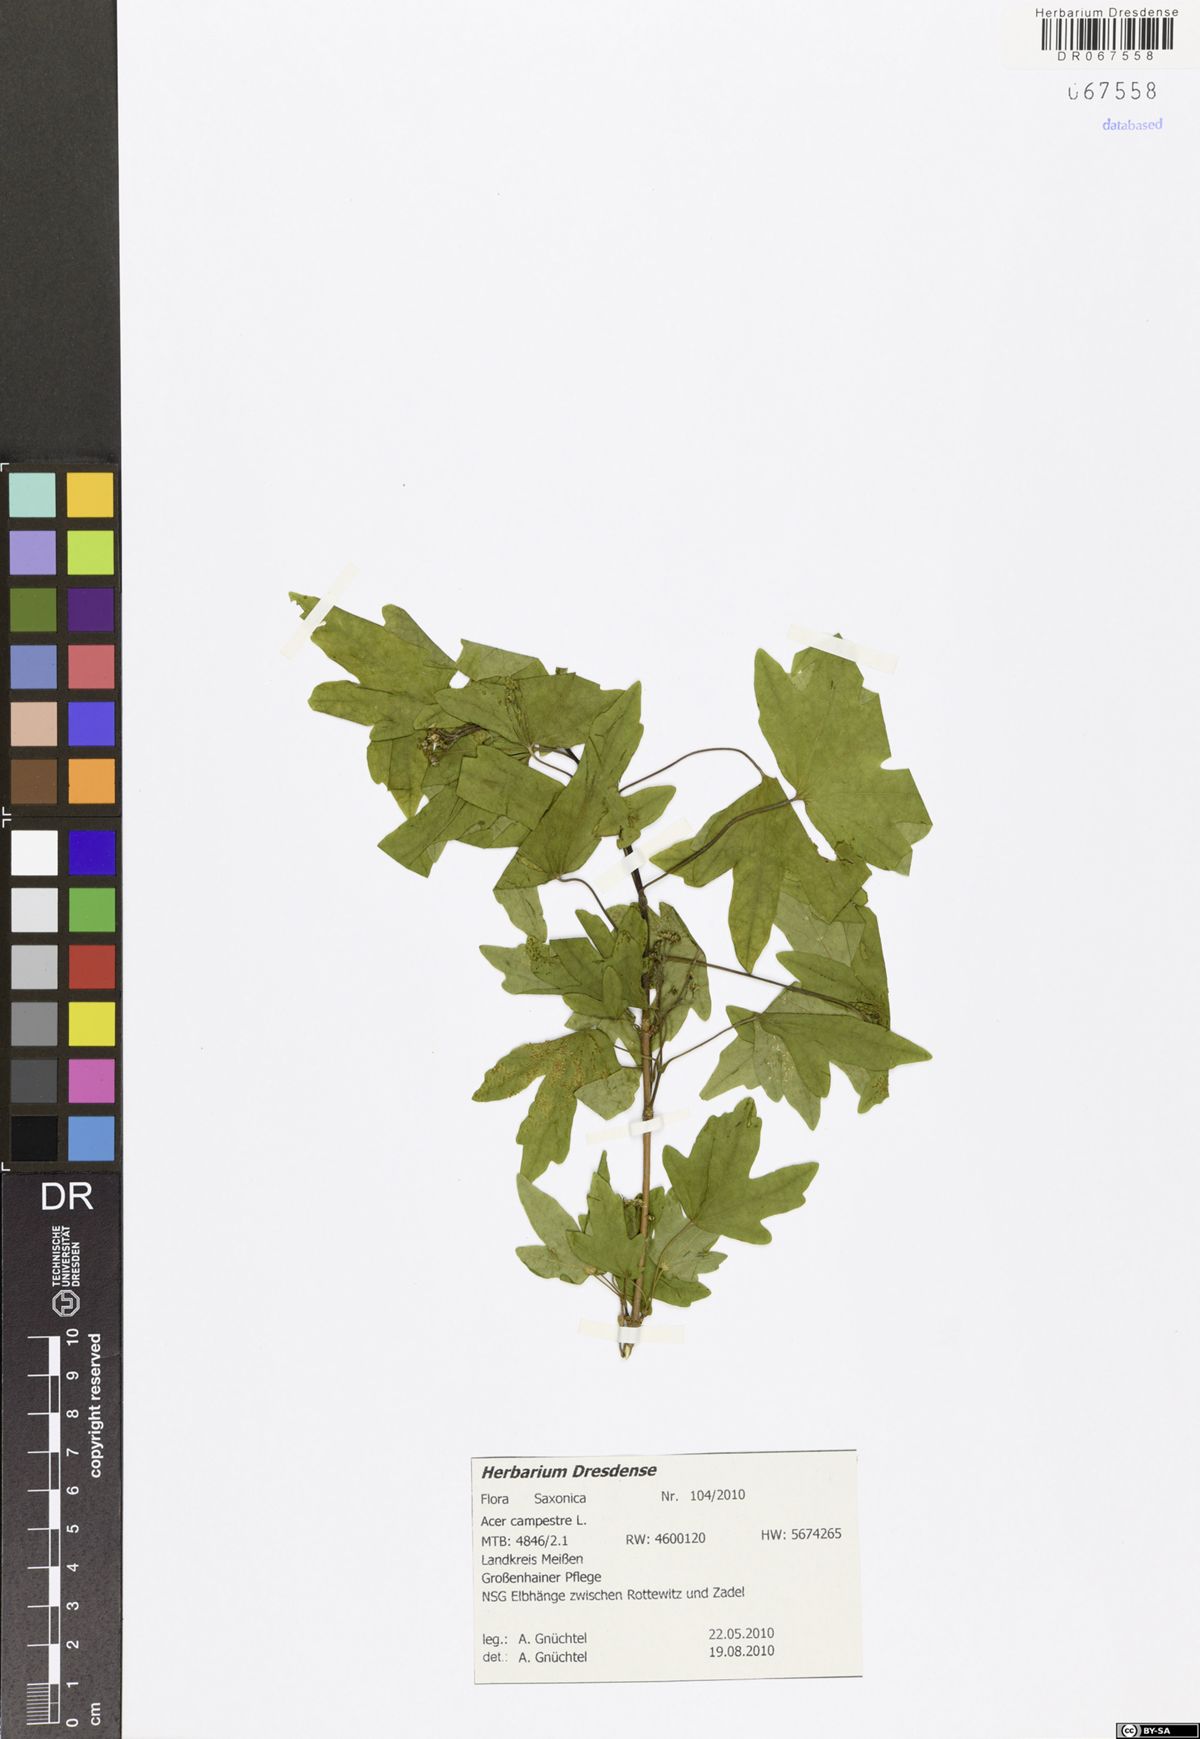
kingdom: Plantae
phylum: Tracheophyta
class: Magnoliopsida
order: Sapindales
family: Sapindaceae
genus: Acer
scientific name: Acer campestre
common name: Field maple
